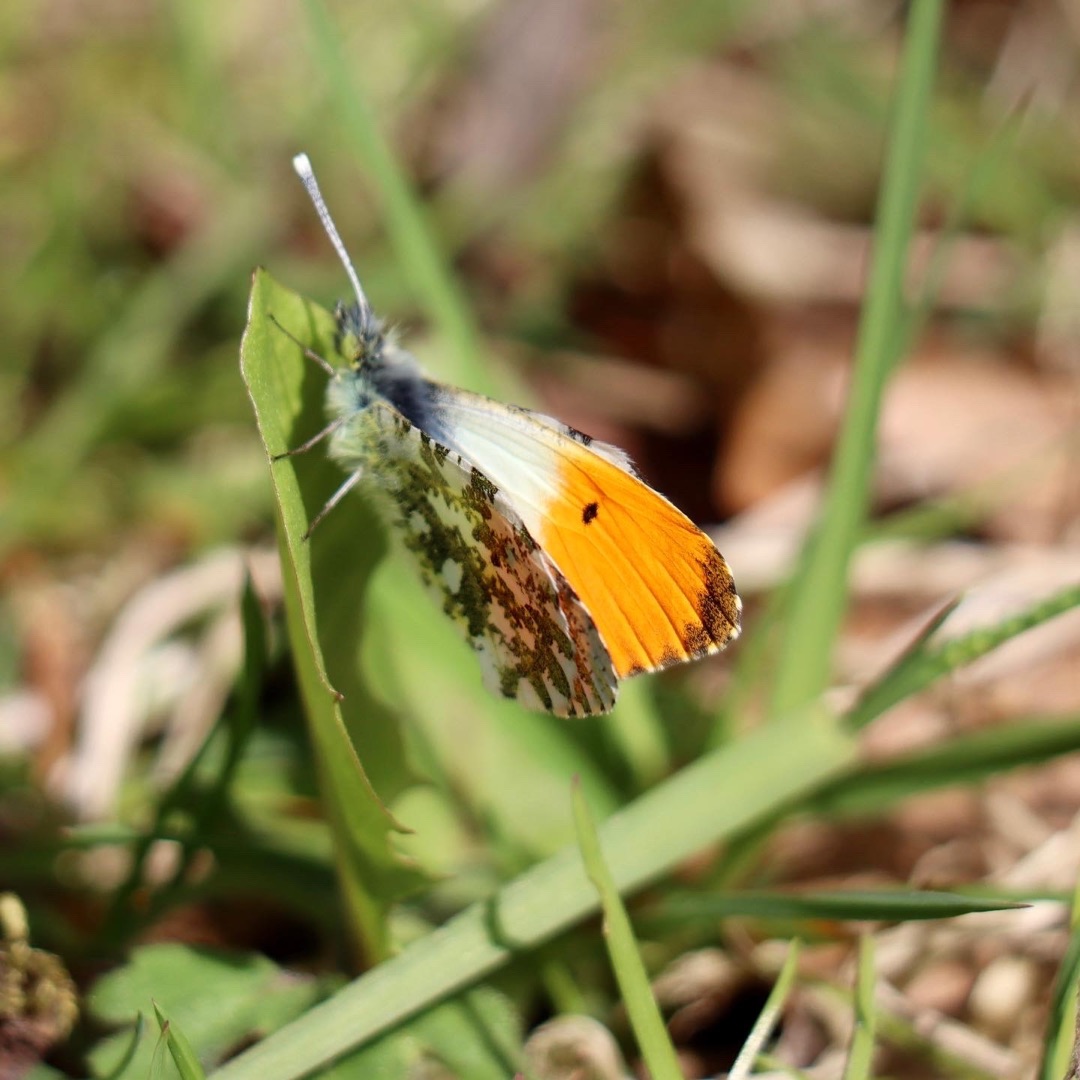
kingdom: Animalia
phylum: Arthropoda
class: Insecta
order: Lepidoptera
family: Pieridae
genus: Anthocharis
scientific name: Anthocharis cardamines
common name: Aurora
